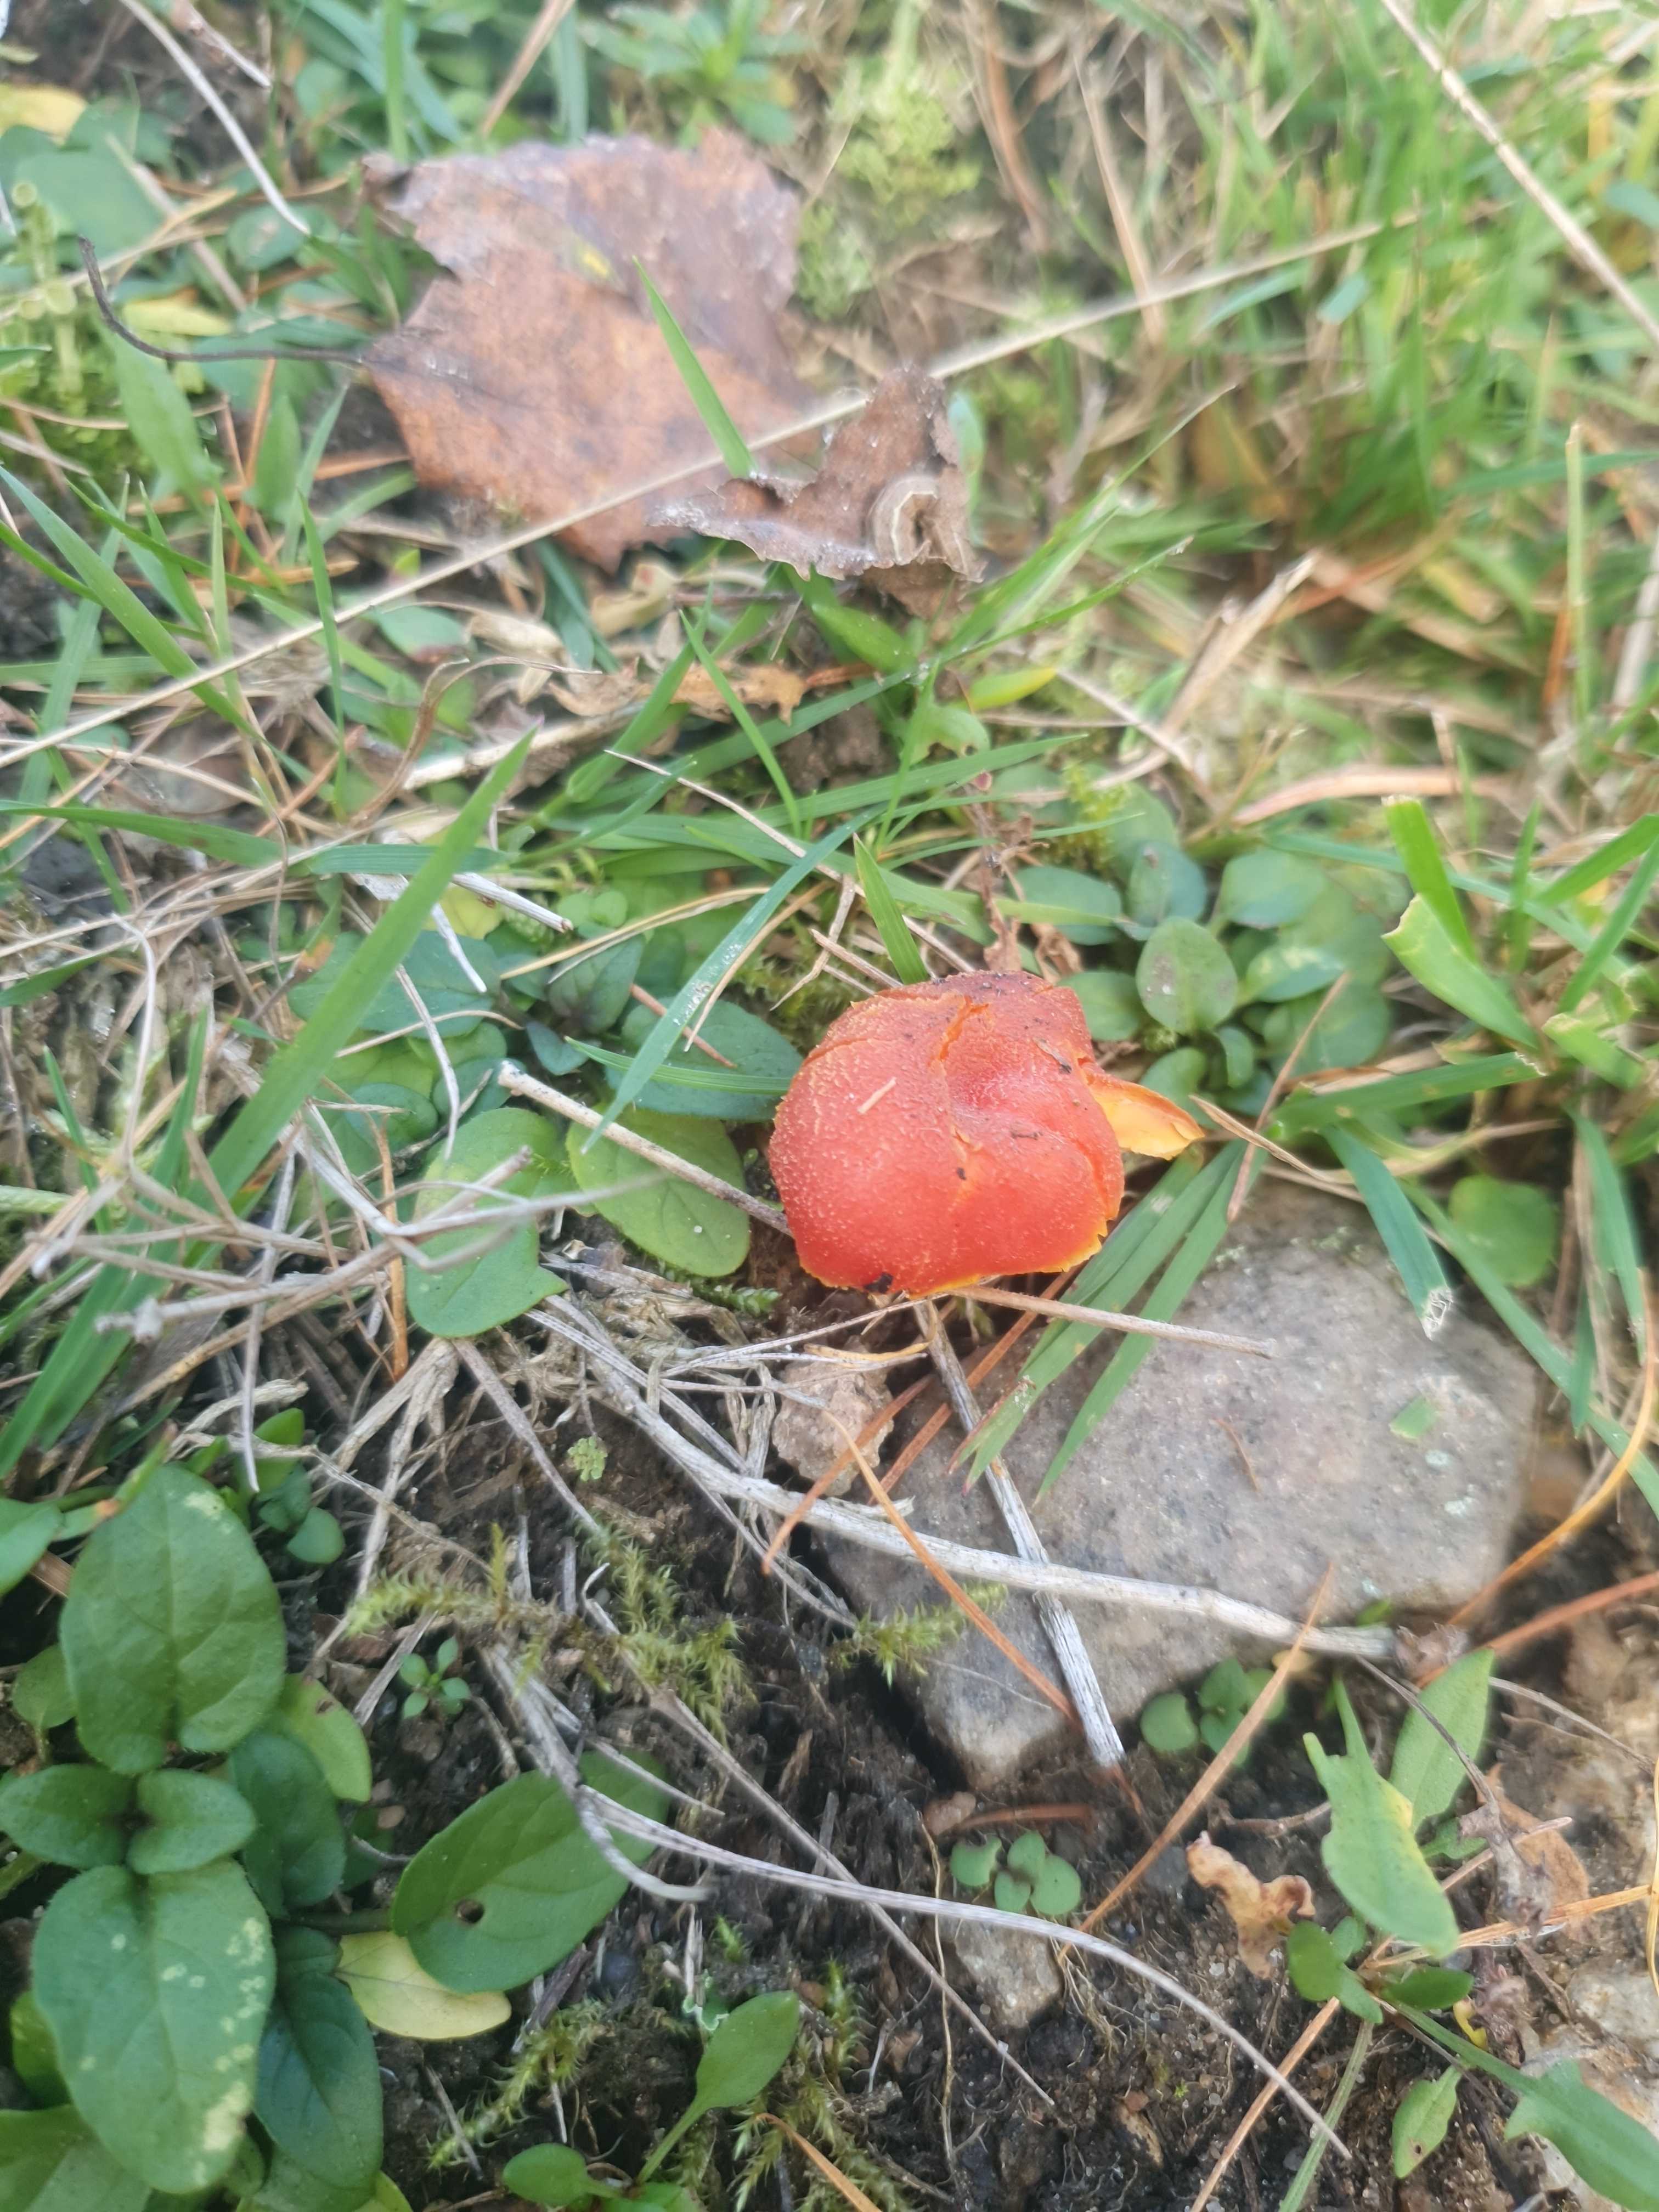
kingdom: Fungi
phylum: Basidiomycota
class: Agaricomycetes
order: Agaricales
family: Hygrophoraceae
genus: Hygrocybe
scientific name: Hygrocybe
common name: vokshat
